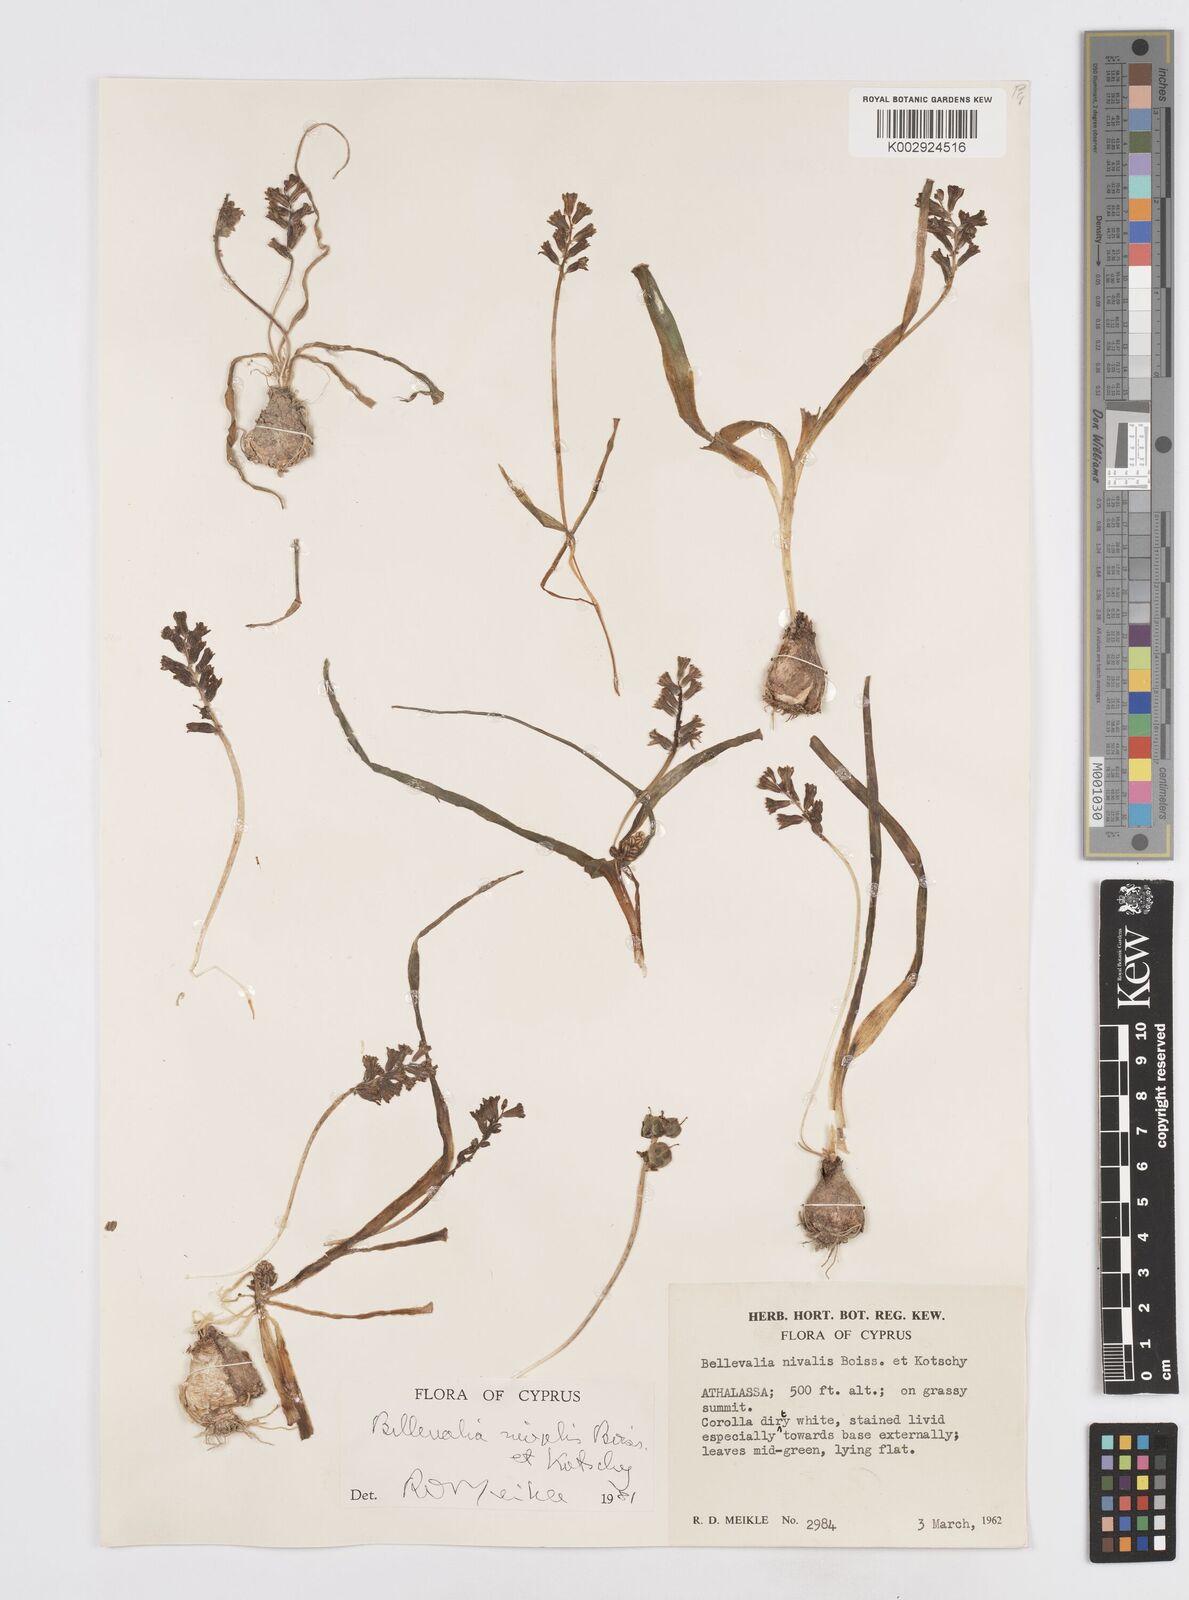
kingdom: Plantae
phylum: Tracheophyta
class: Liliopsida
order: Asparagales
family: Asparagaceae
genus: Bellevalia
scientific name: Bellevalia nivalis
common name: Snow bellevalia
